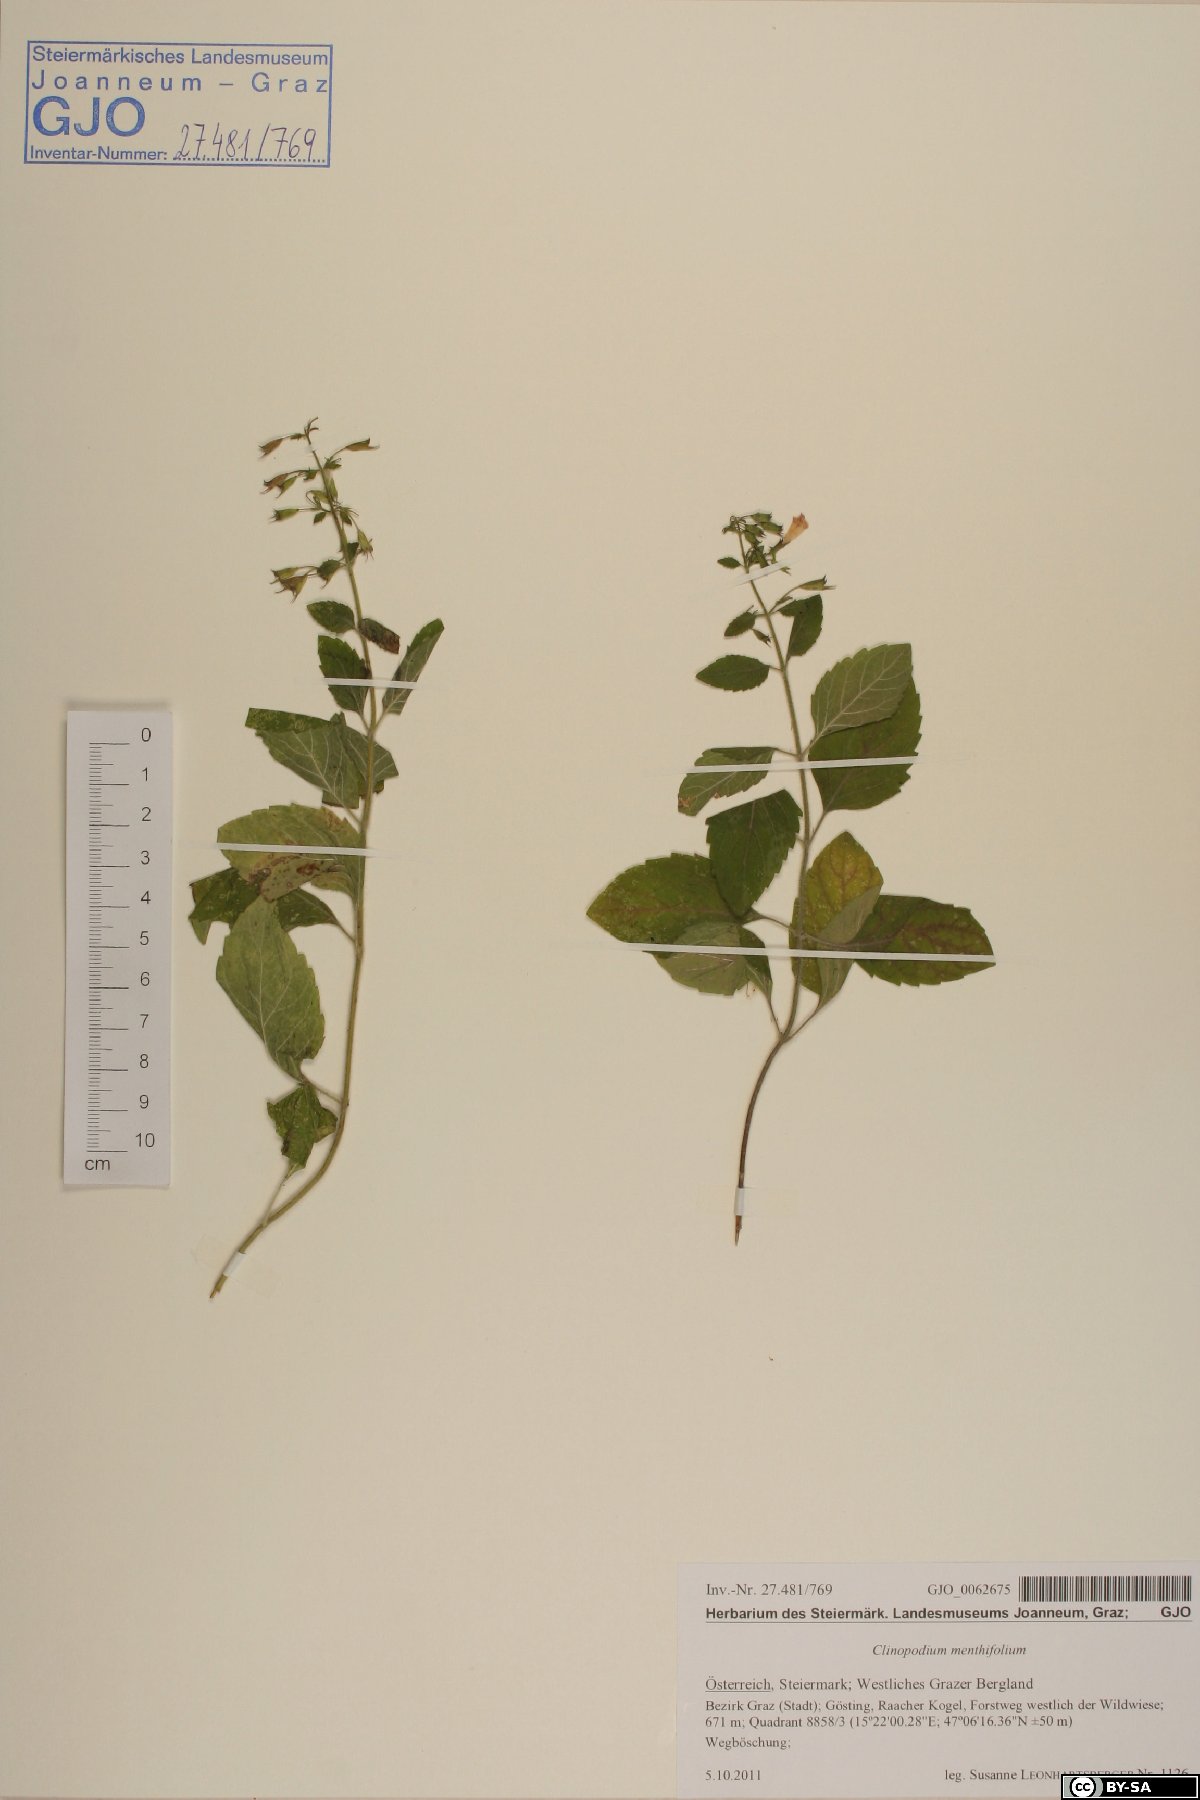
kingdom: Plantae
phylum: Tracheophyta
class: Magnoliopsida
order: Lamiales
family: Lamiaceae
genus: Clinopodium
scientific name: Clinopodium menthifolium
